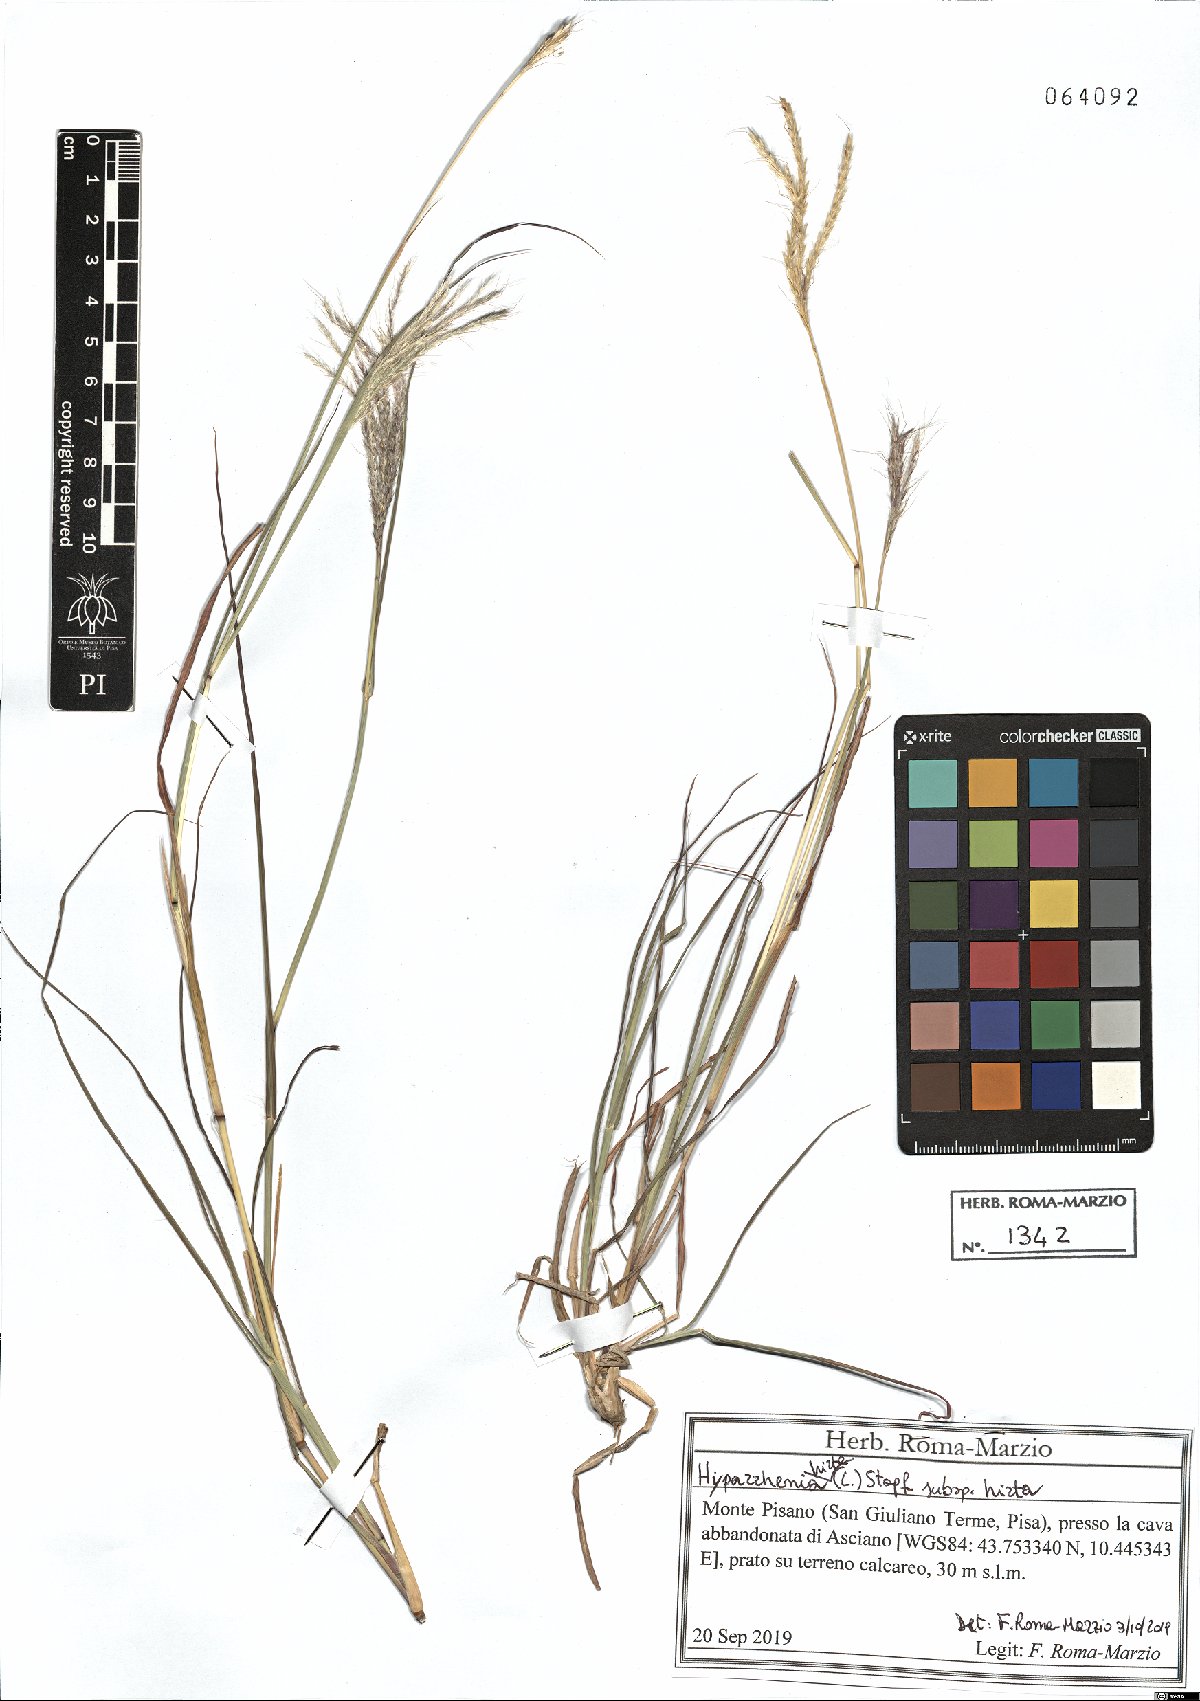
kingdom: Plantae
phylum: Tracheophyta
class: Liliopsida
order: Poales
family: Poaceae
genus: Hyparrhenia
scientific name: Hyparrhenia hirta
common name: Thatching grass
